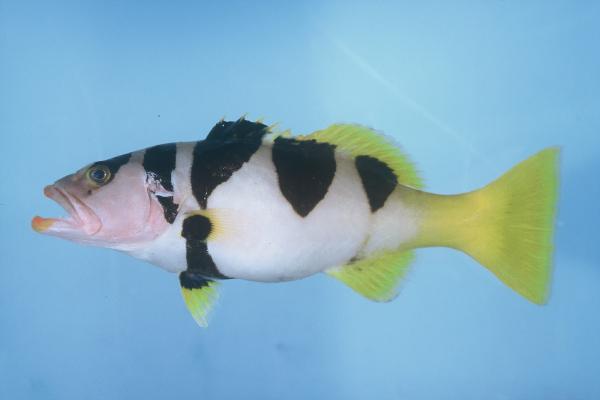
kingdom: Animalia
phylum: Chordata
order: Perciformes
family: Serranidae
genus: Plectropomus
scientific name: Plectropomus laevis
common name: Chinese footballer
